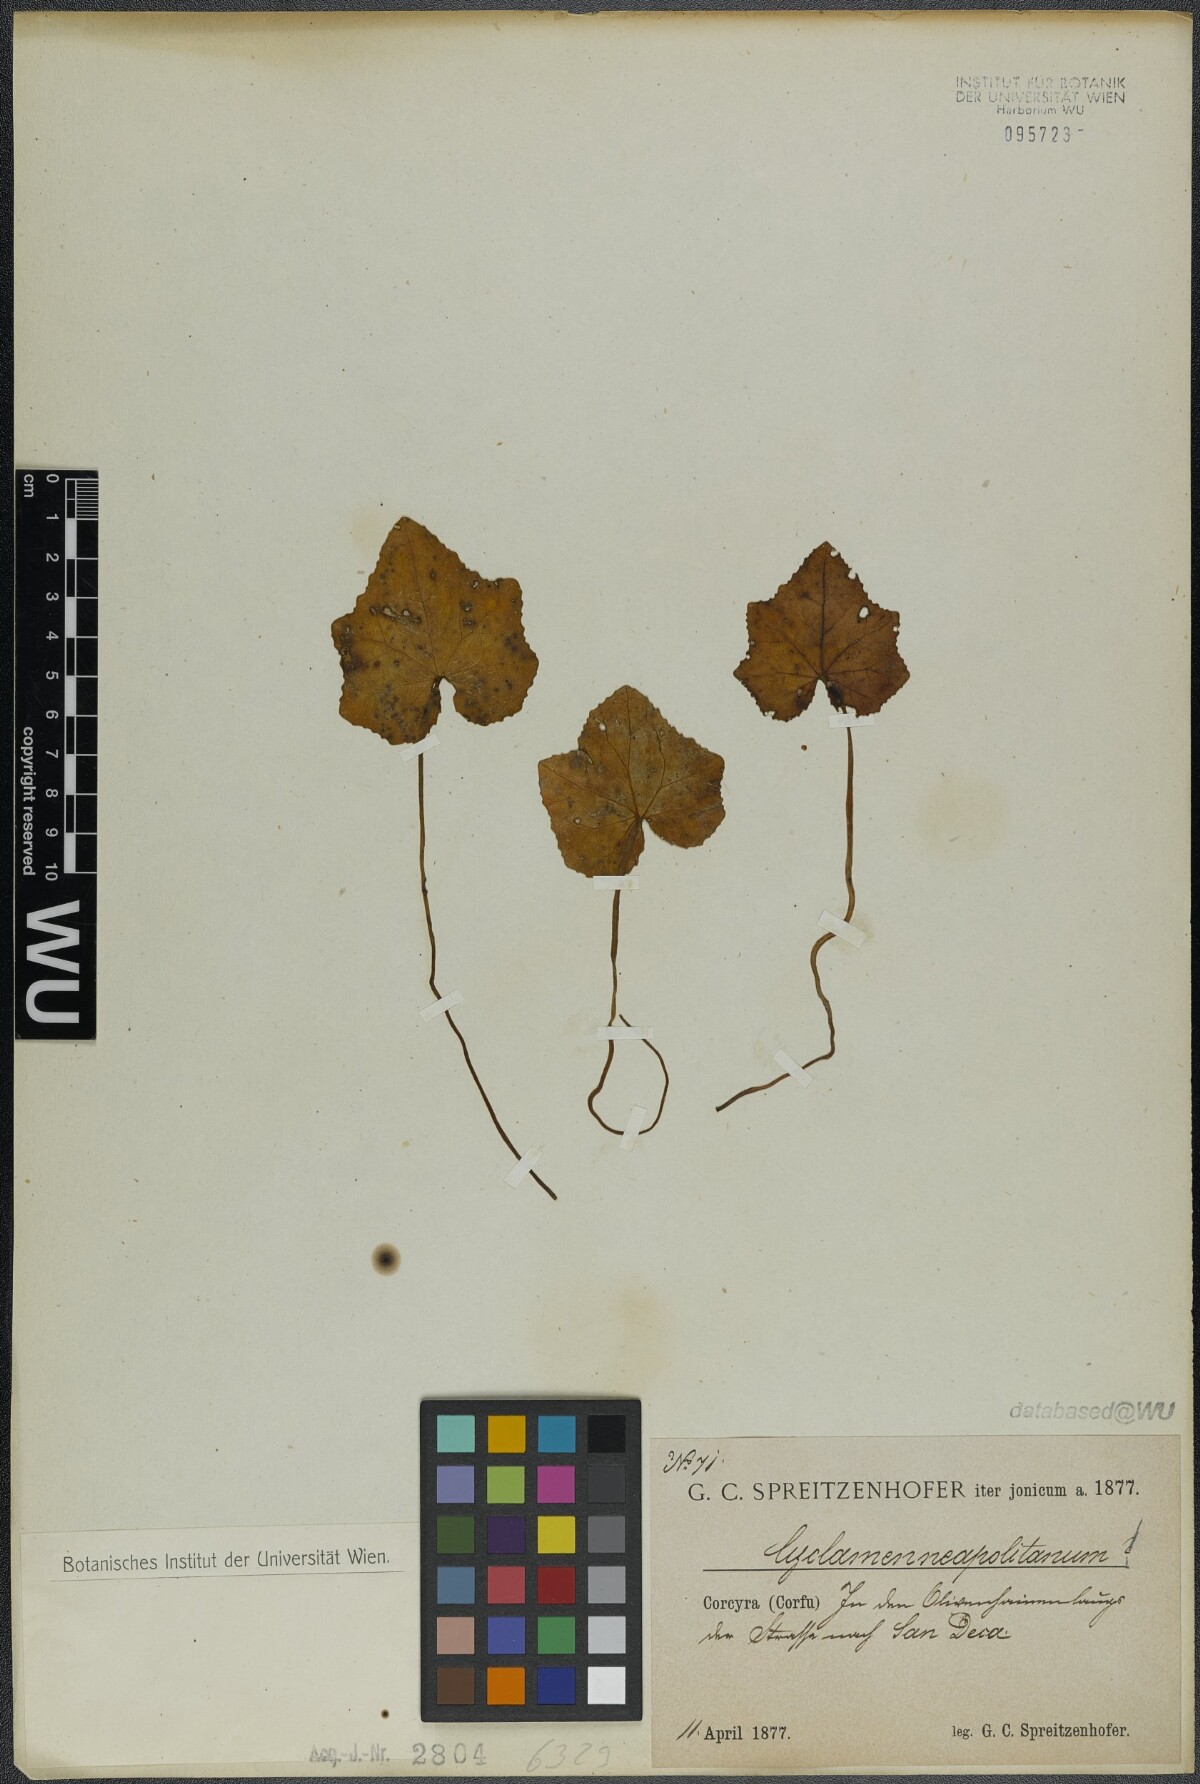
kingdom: Plantae
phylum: Tracheophyta
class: Magnoliopsida
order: Ericales
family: Primulaceae
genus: Cyclamen
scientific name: Cyclamen hederifolium
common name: Sowbread
